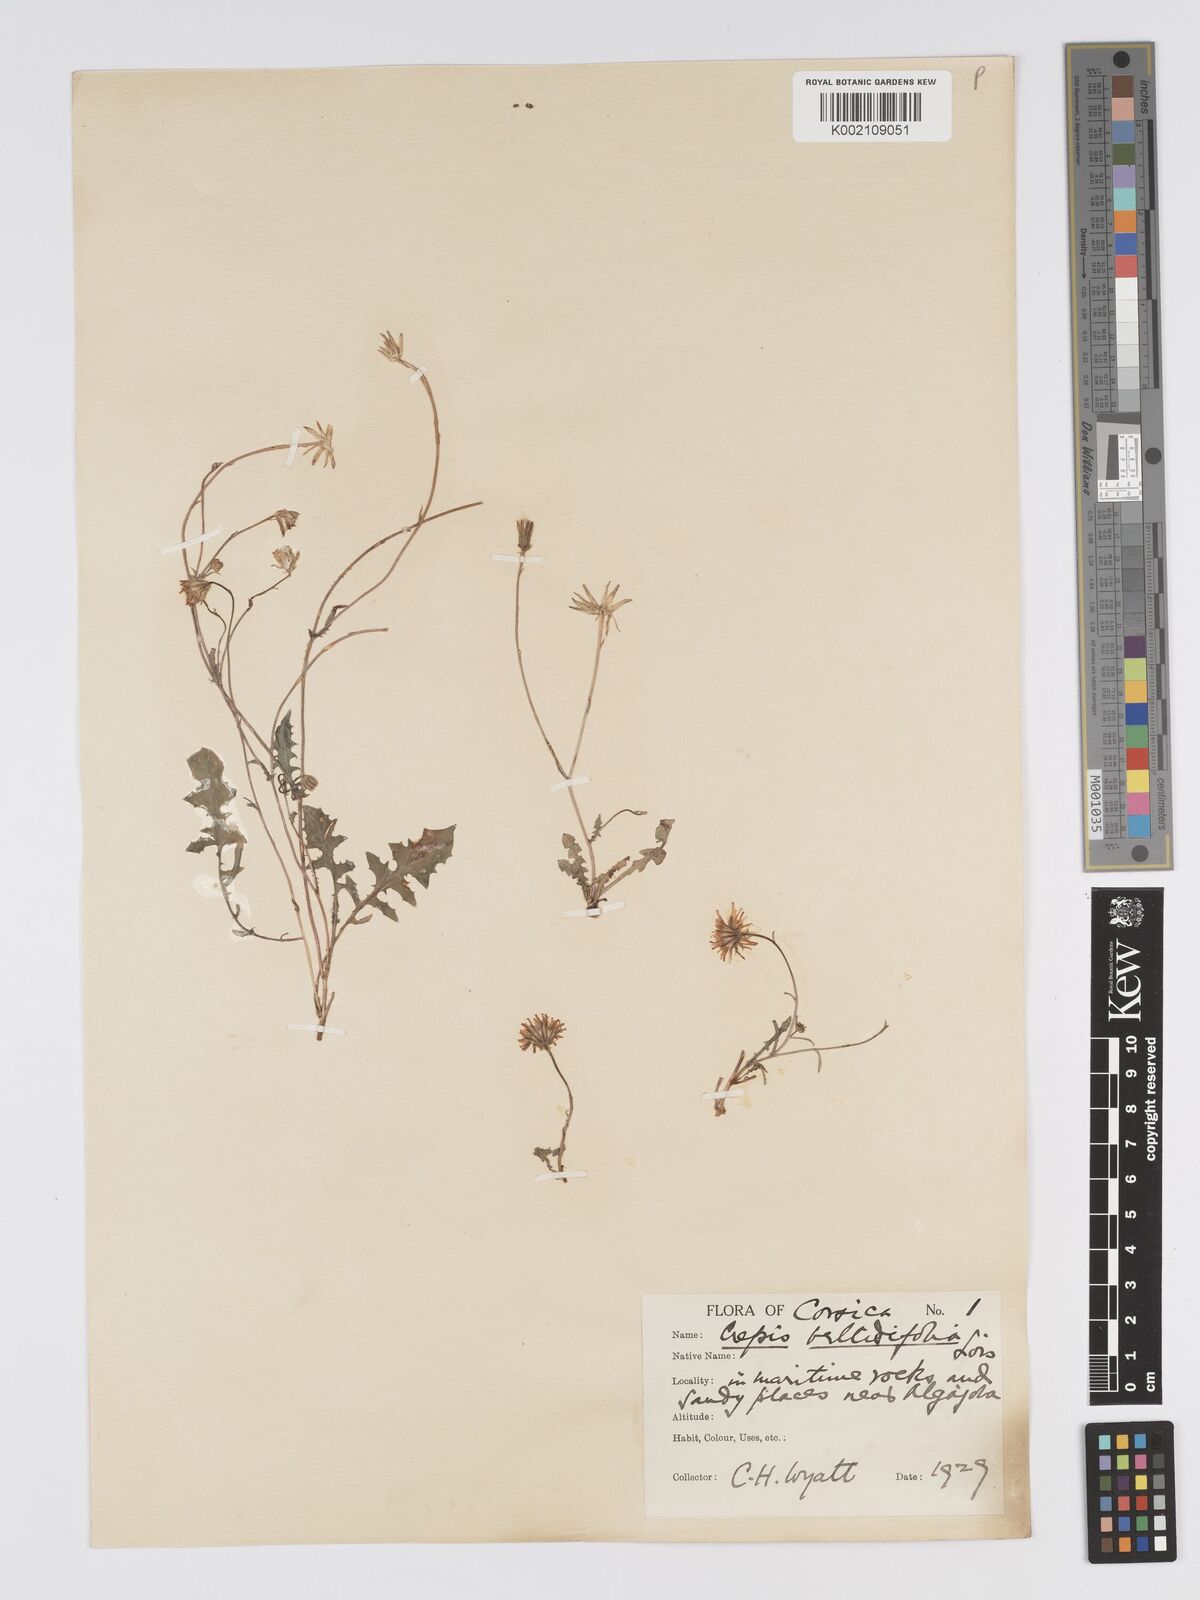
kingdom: Plantae
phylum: Tracheophyta
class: Magnoliopsida
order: Asterales
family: Asteraceae
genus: Crepis
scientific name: Crepis bellidifolia
